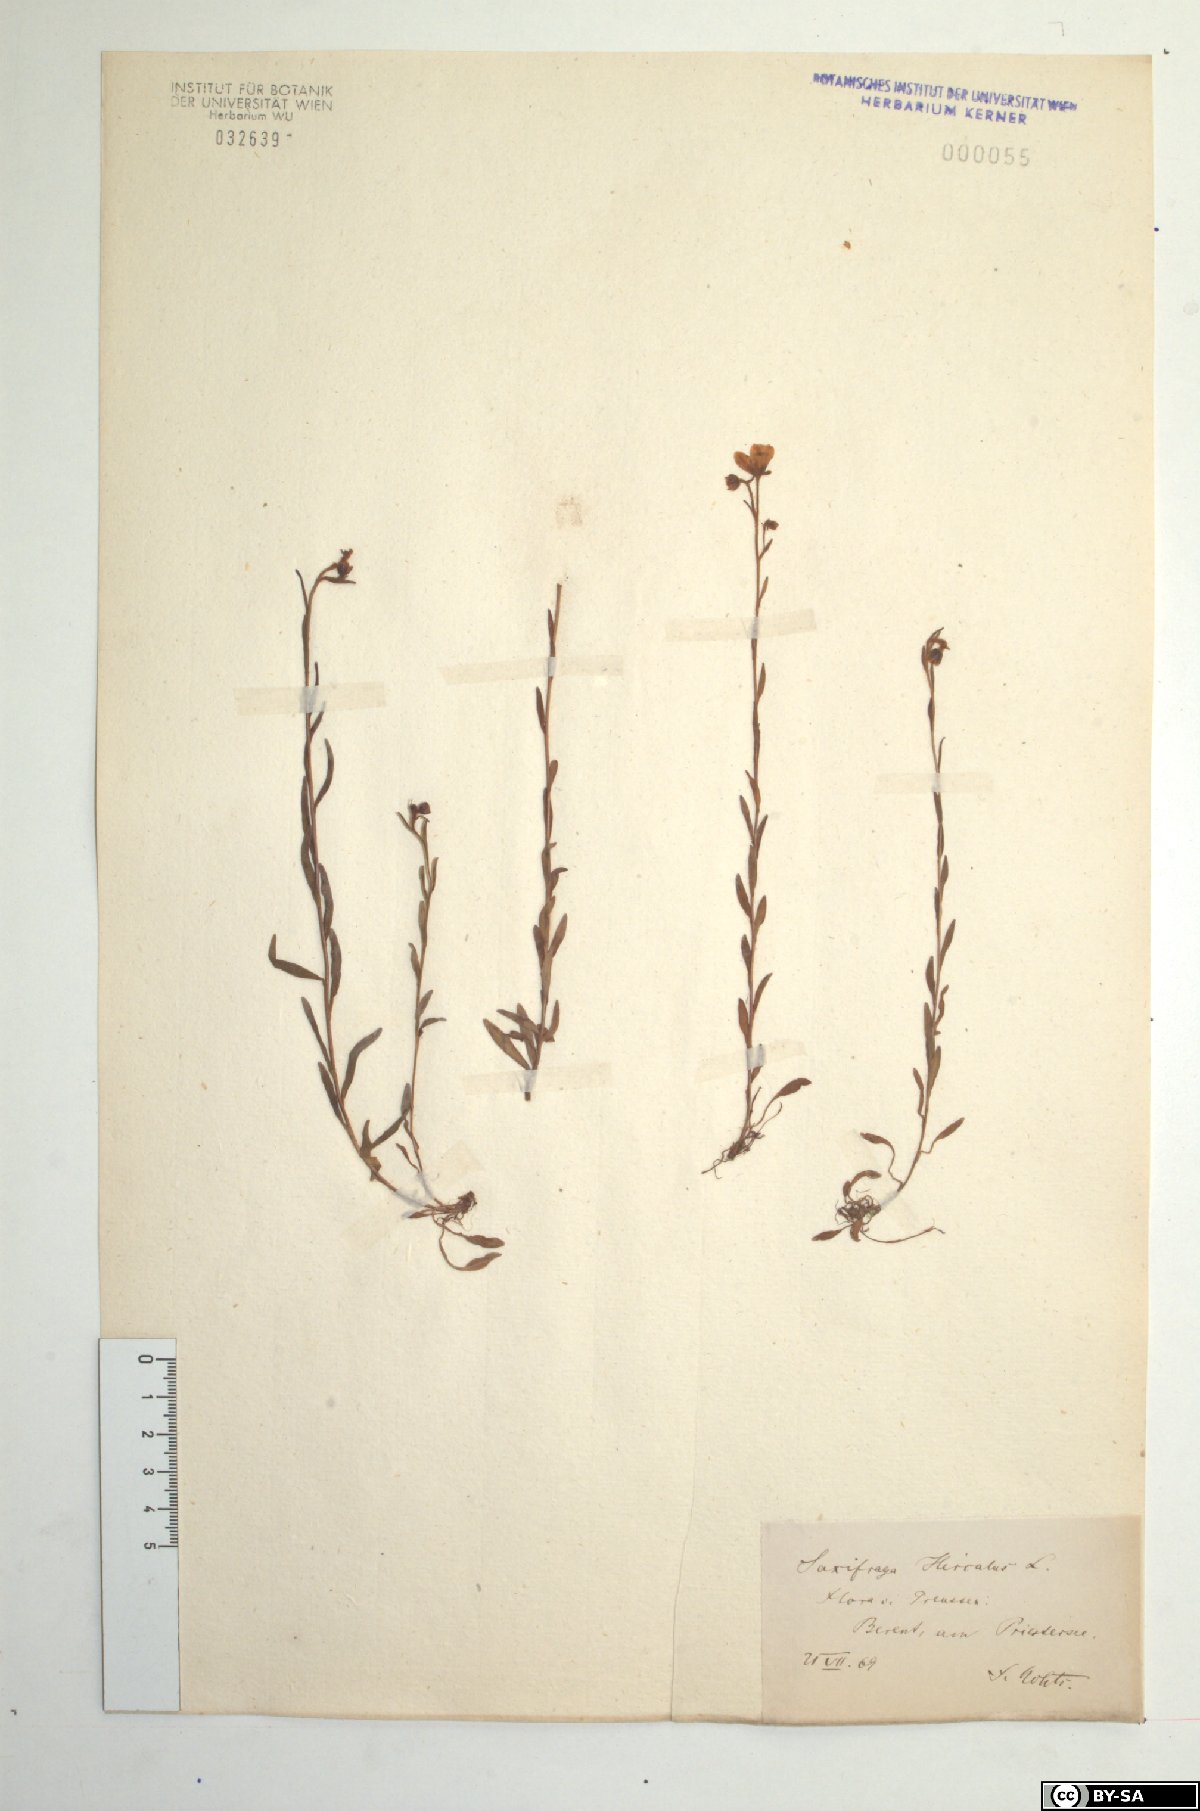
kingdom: Plantae
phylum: Tracheophyta
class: Magnoliopsida
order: Saxifragales
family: Saxifragaceae
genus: Saxifraga
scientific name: Saxifraga hirculus
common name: Yellow marsh saxifrage
